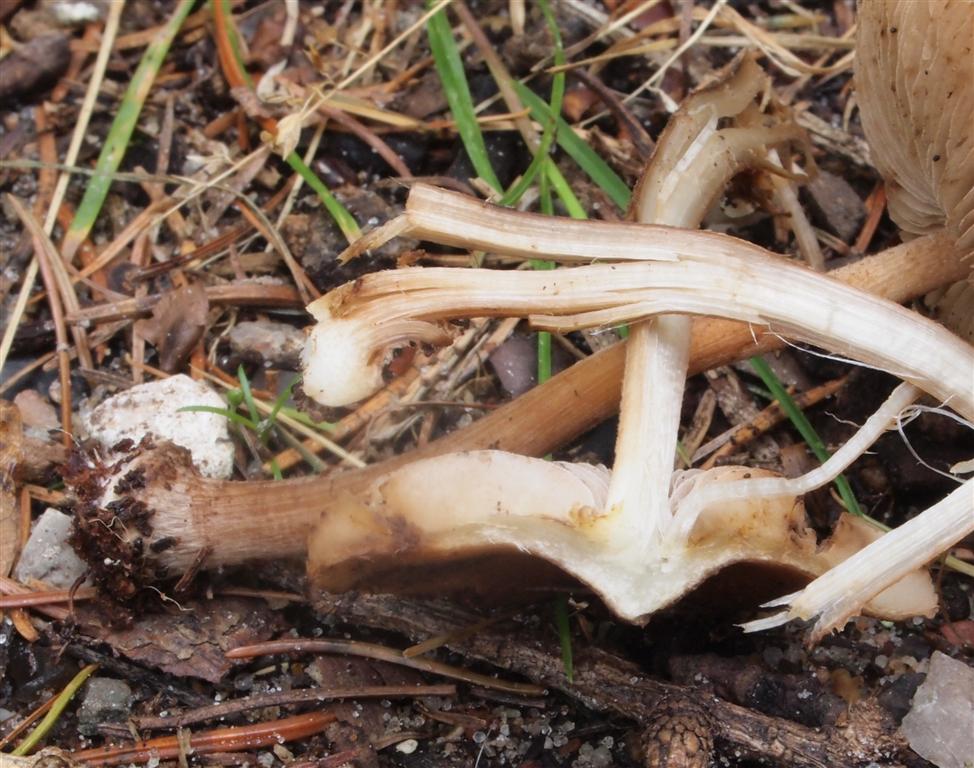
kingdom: Fungi
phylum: Basidiomycota
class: Agaricomycetes
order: Agaricales
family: Inocybaceae
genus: Inocybe
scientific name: Inocybe napipes
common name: roeknoldet trævlhat
